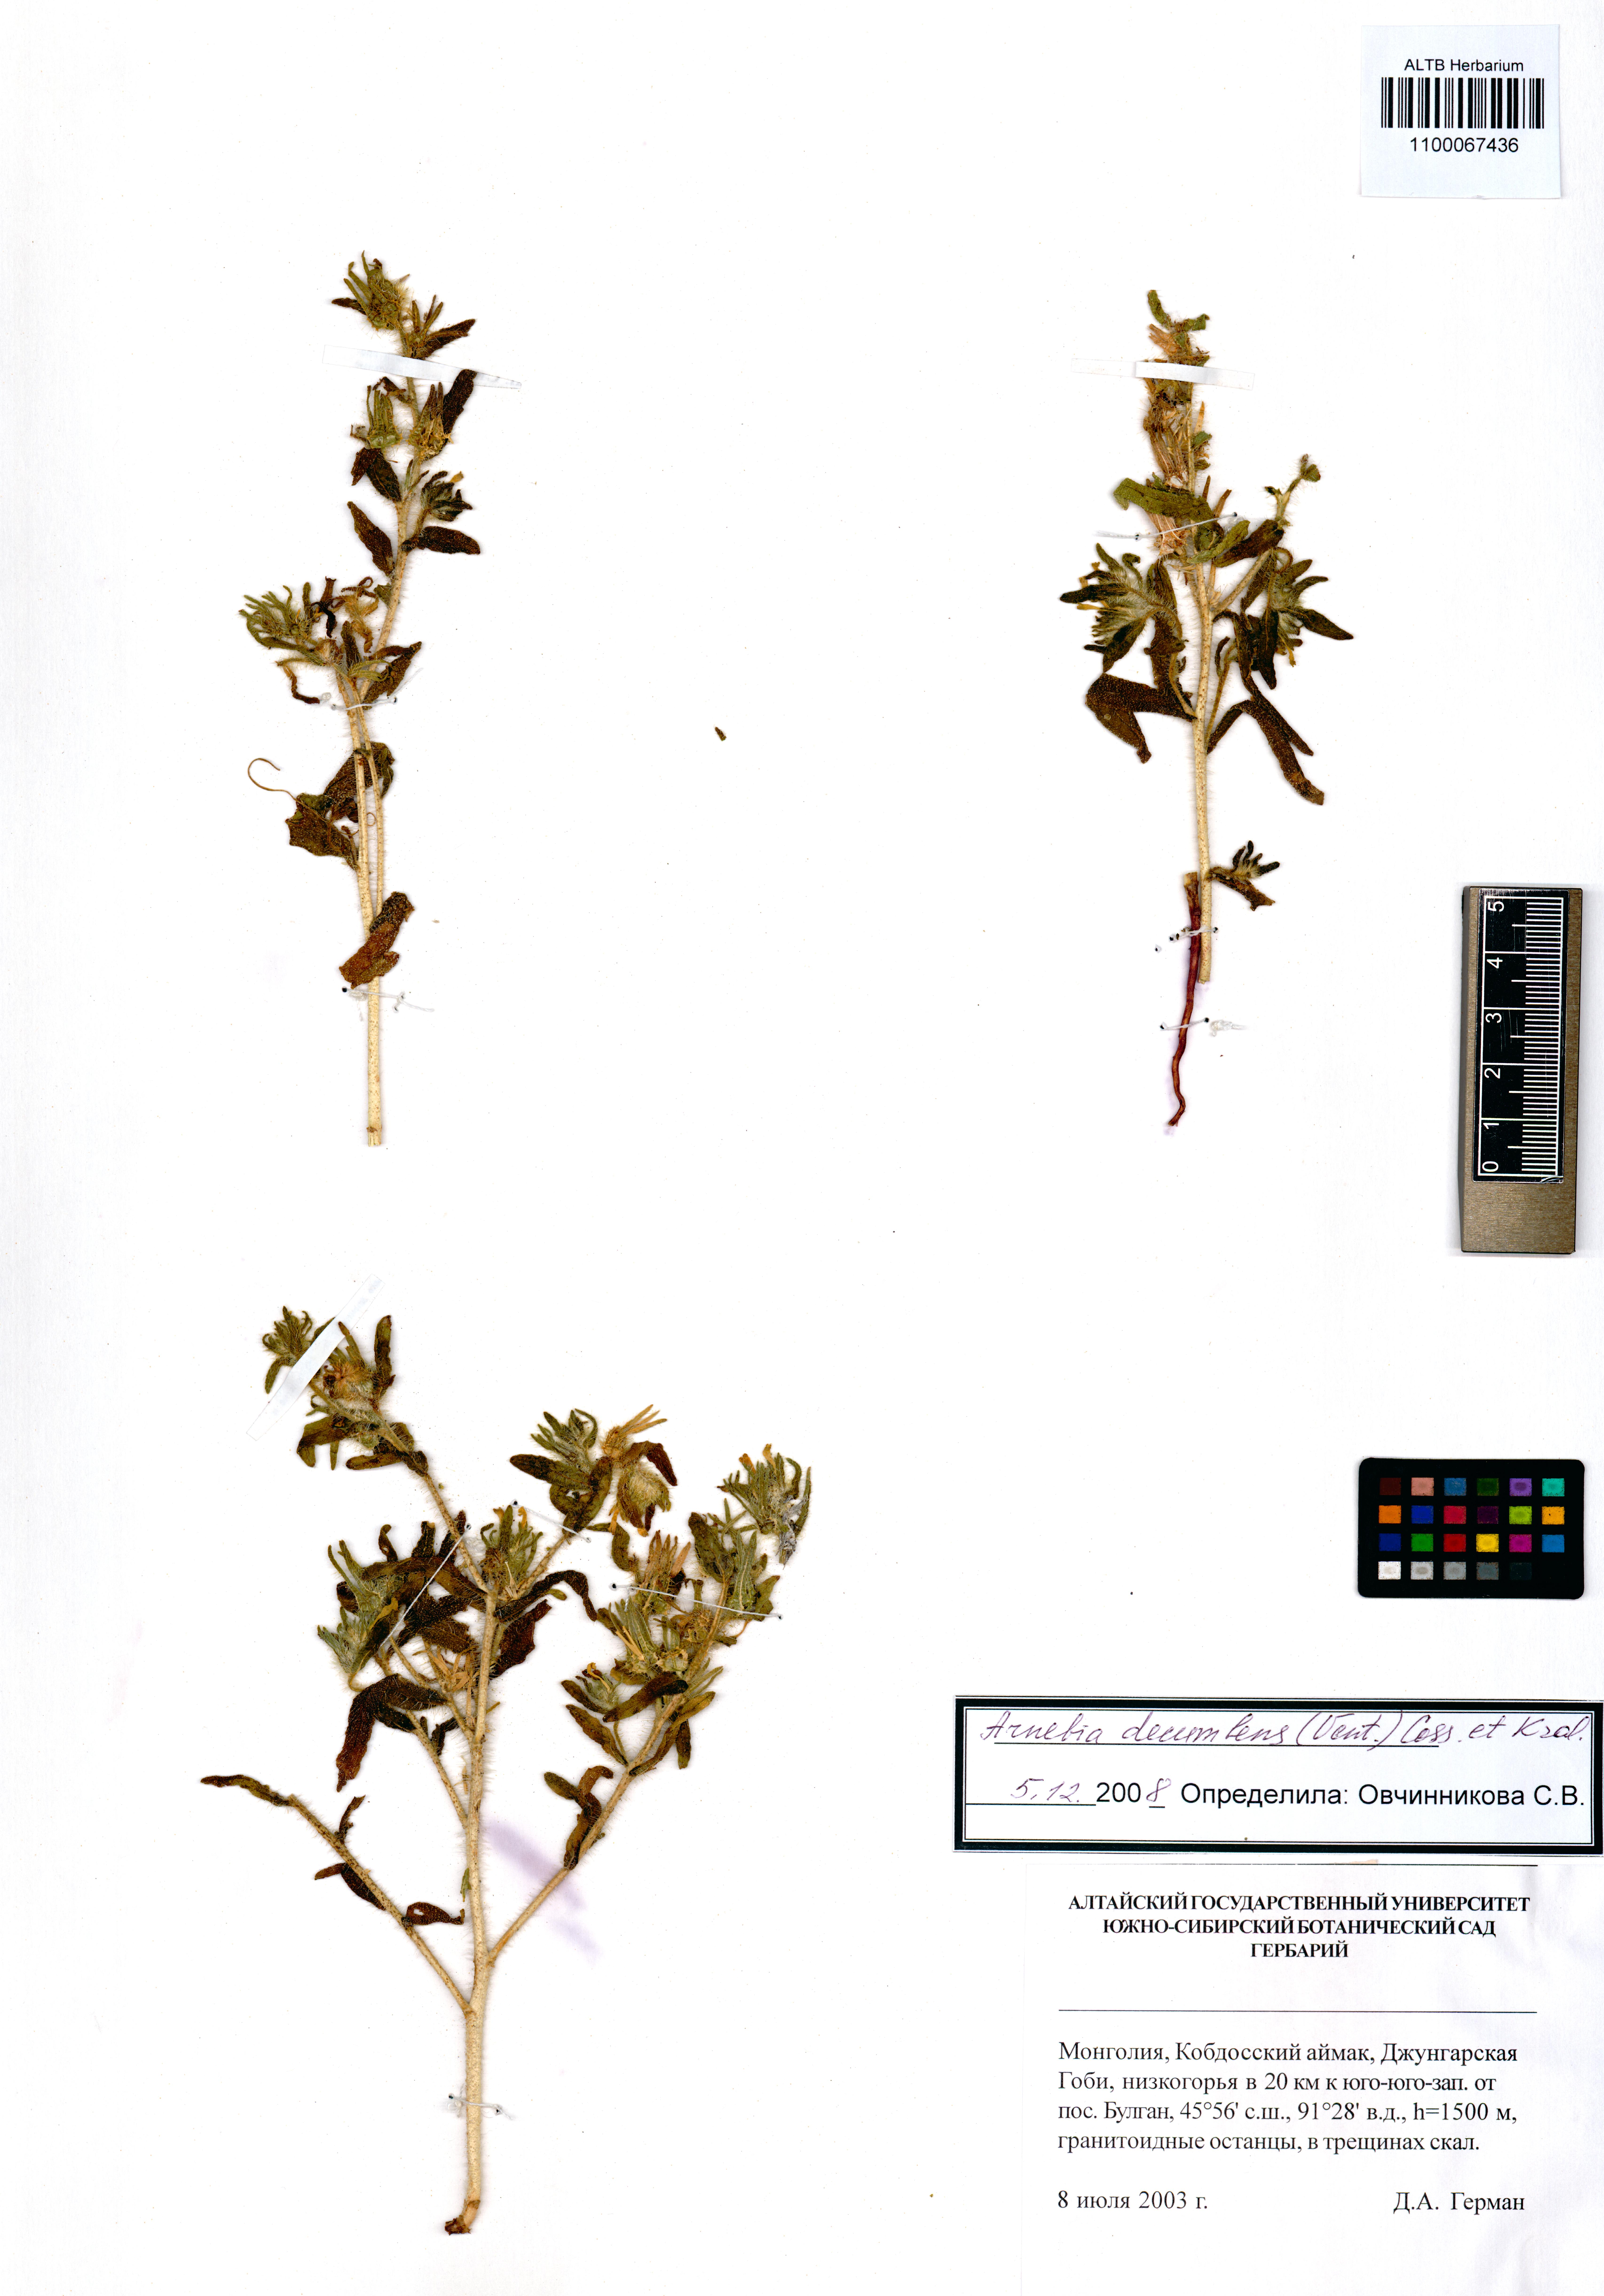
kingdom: Plantae
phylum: Tracheophyta
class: Magnoliopsida
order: Boraginales
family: Boraginaceae
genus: Arnebia
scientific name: Arnebia decumbens
